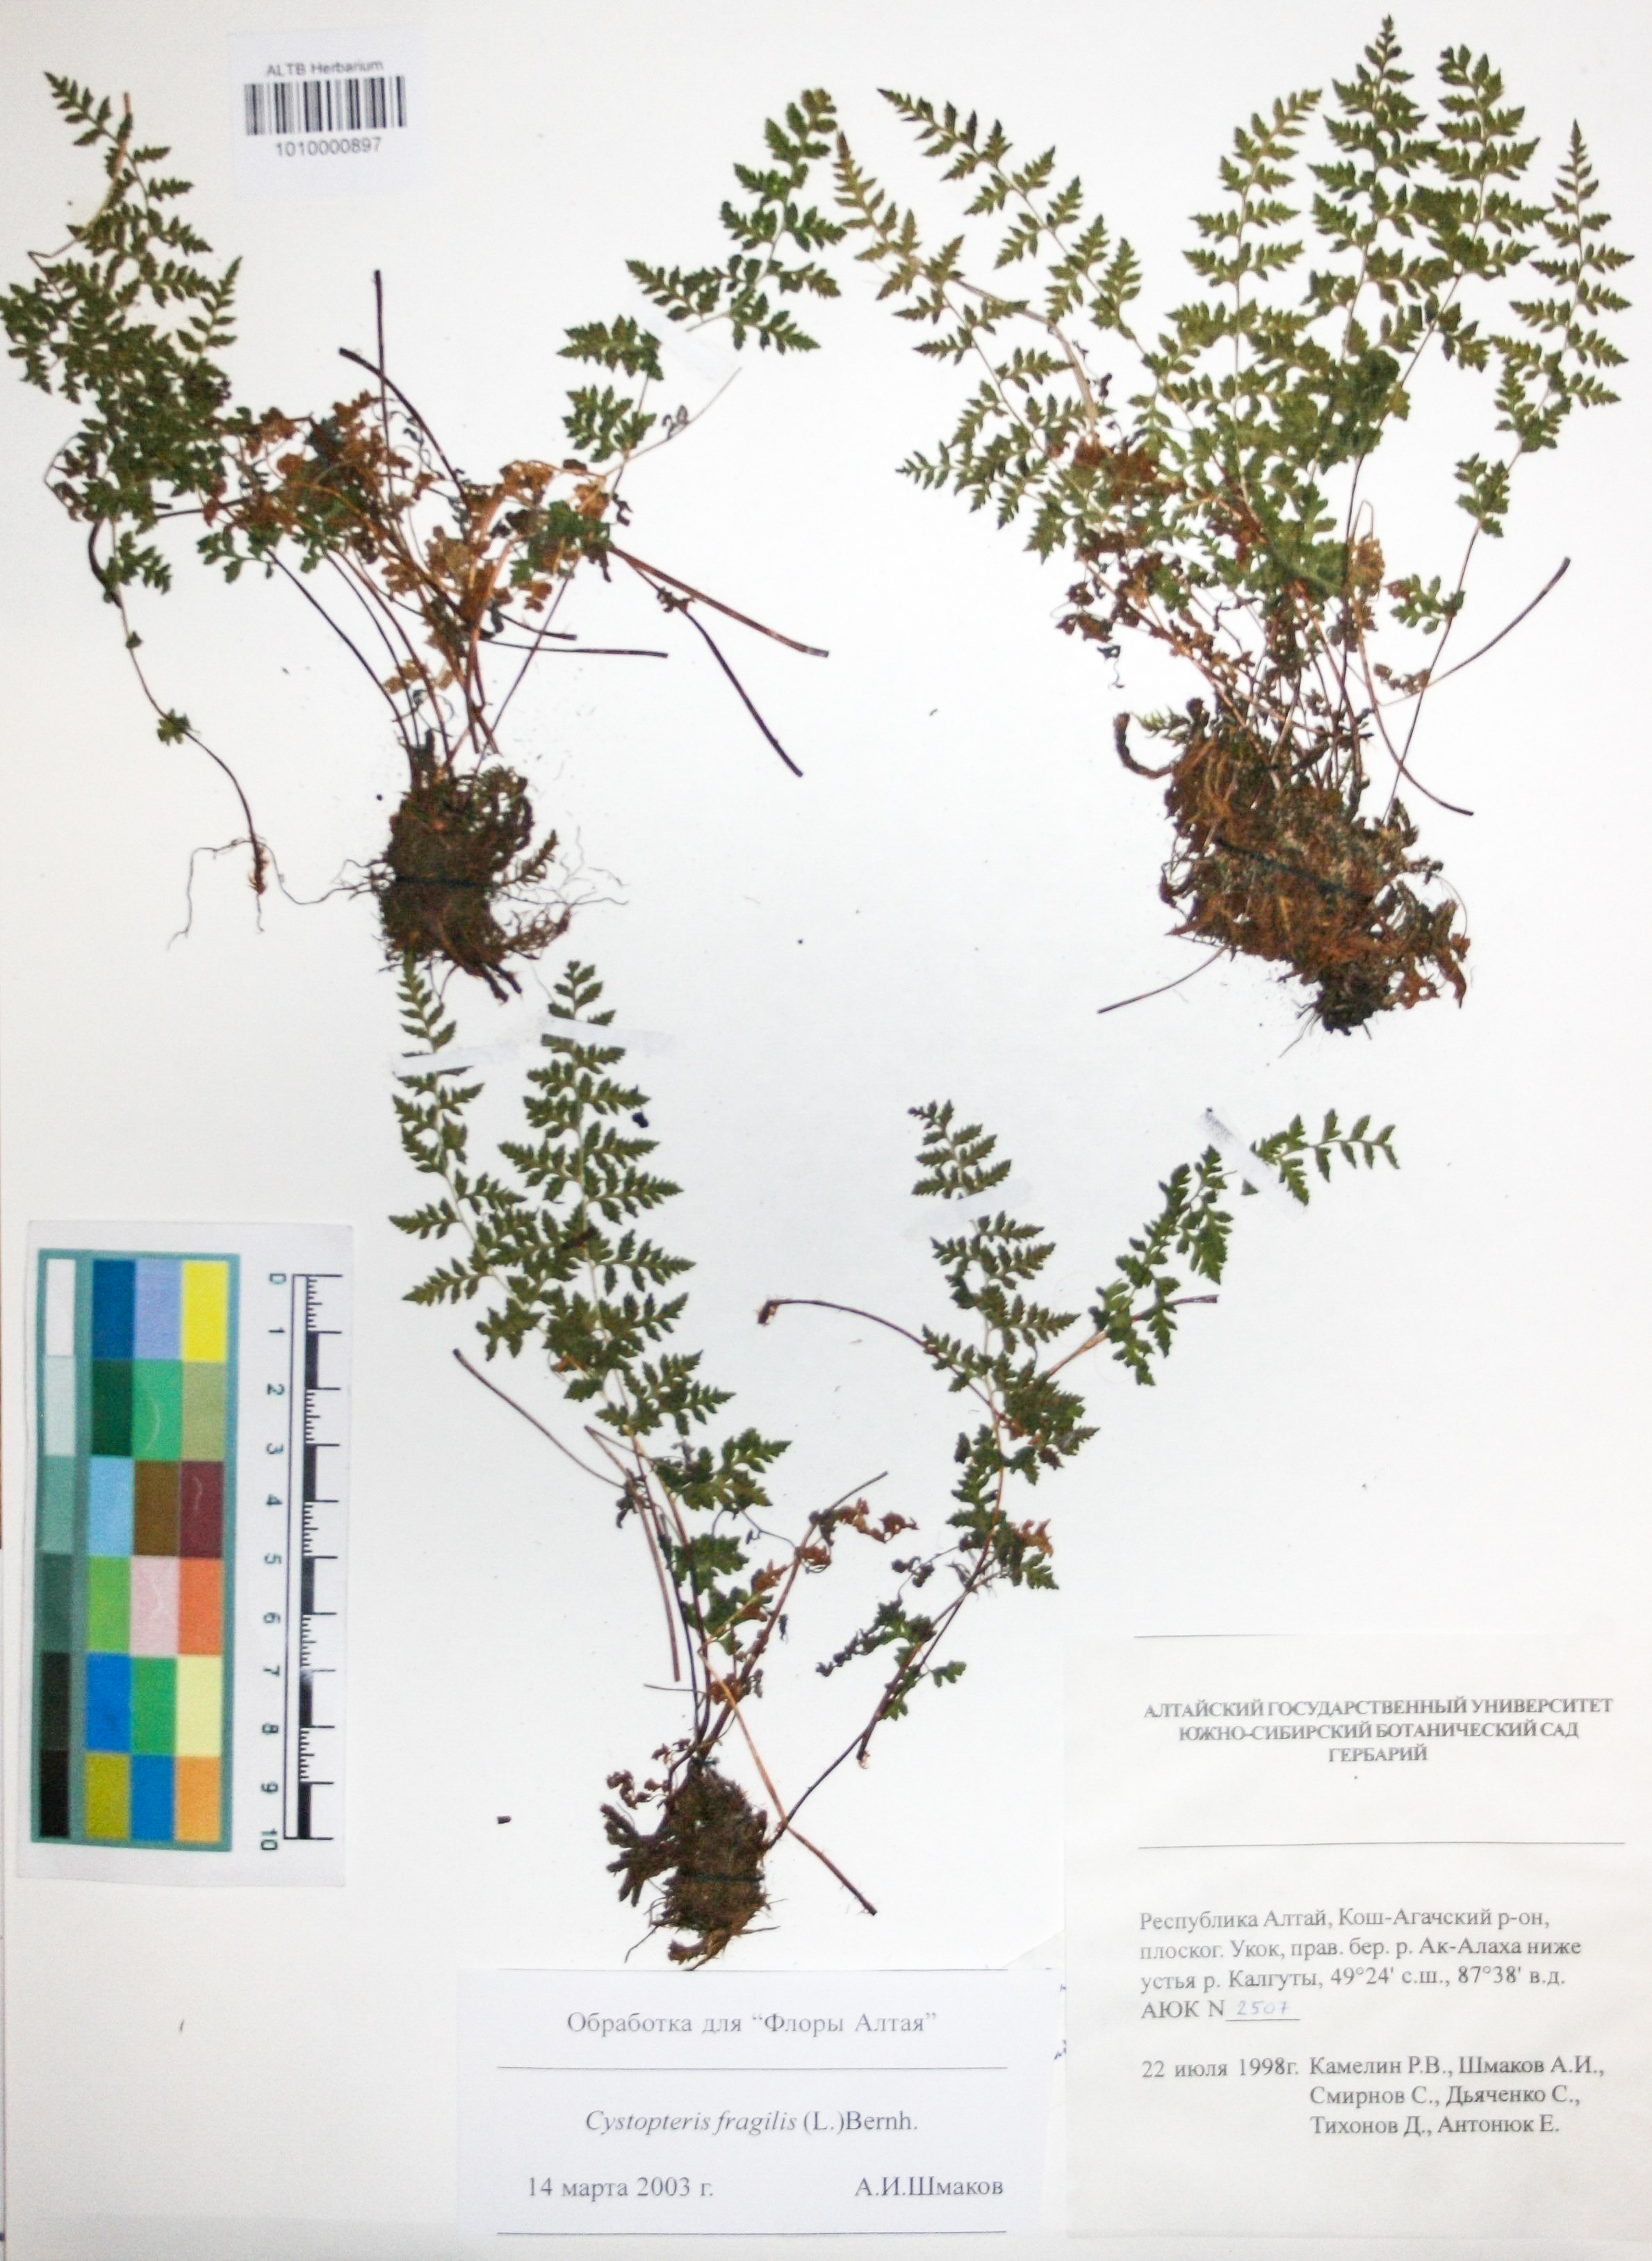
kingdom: Plantae
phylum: Tracheophyta
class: Polypodiopsida
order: Polypodiales
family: Cystopteridaceae
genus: Cystopteris
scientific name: Cystopteris fragilis
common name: Brittle bladder fern
